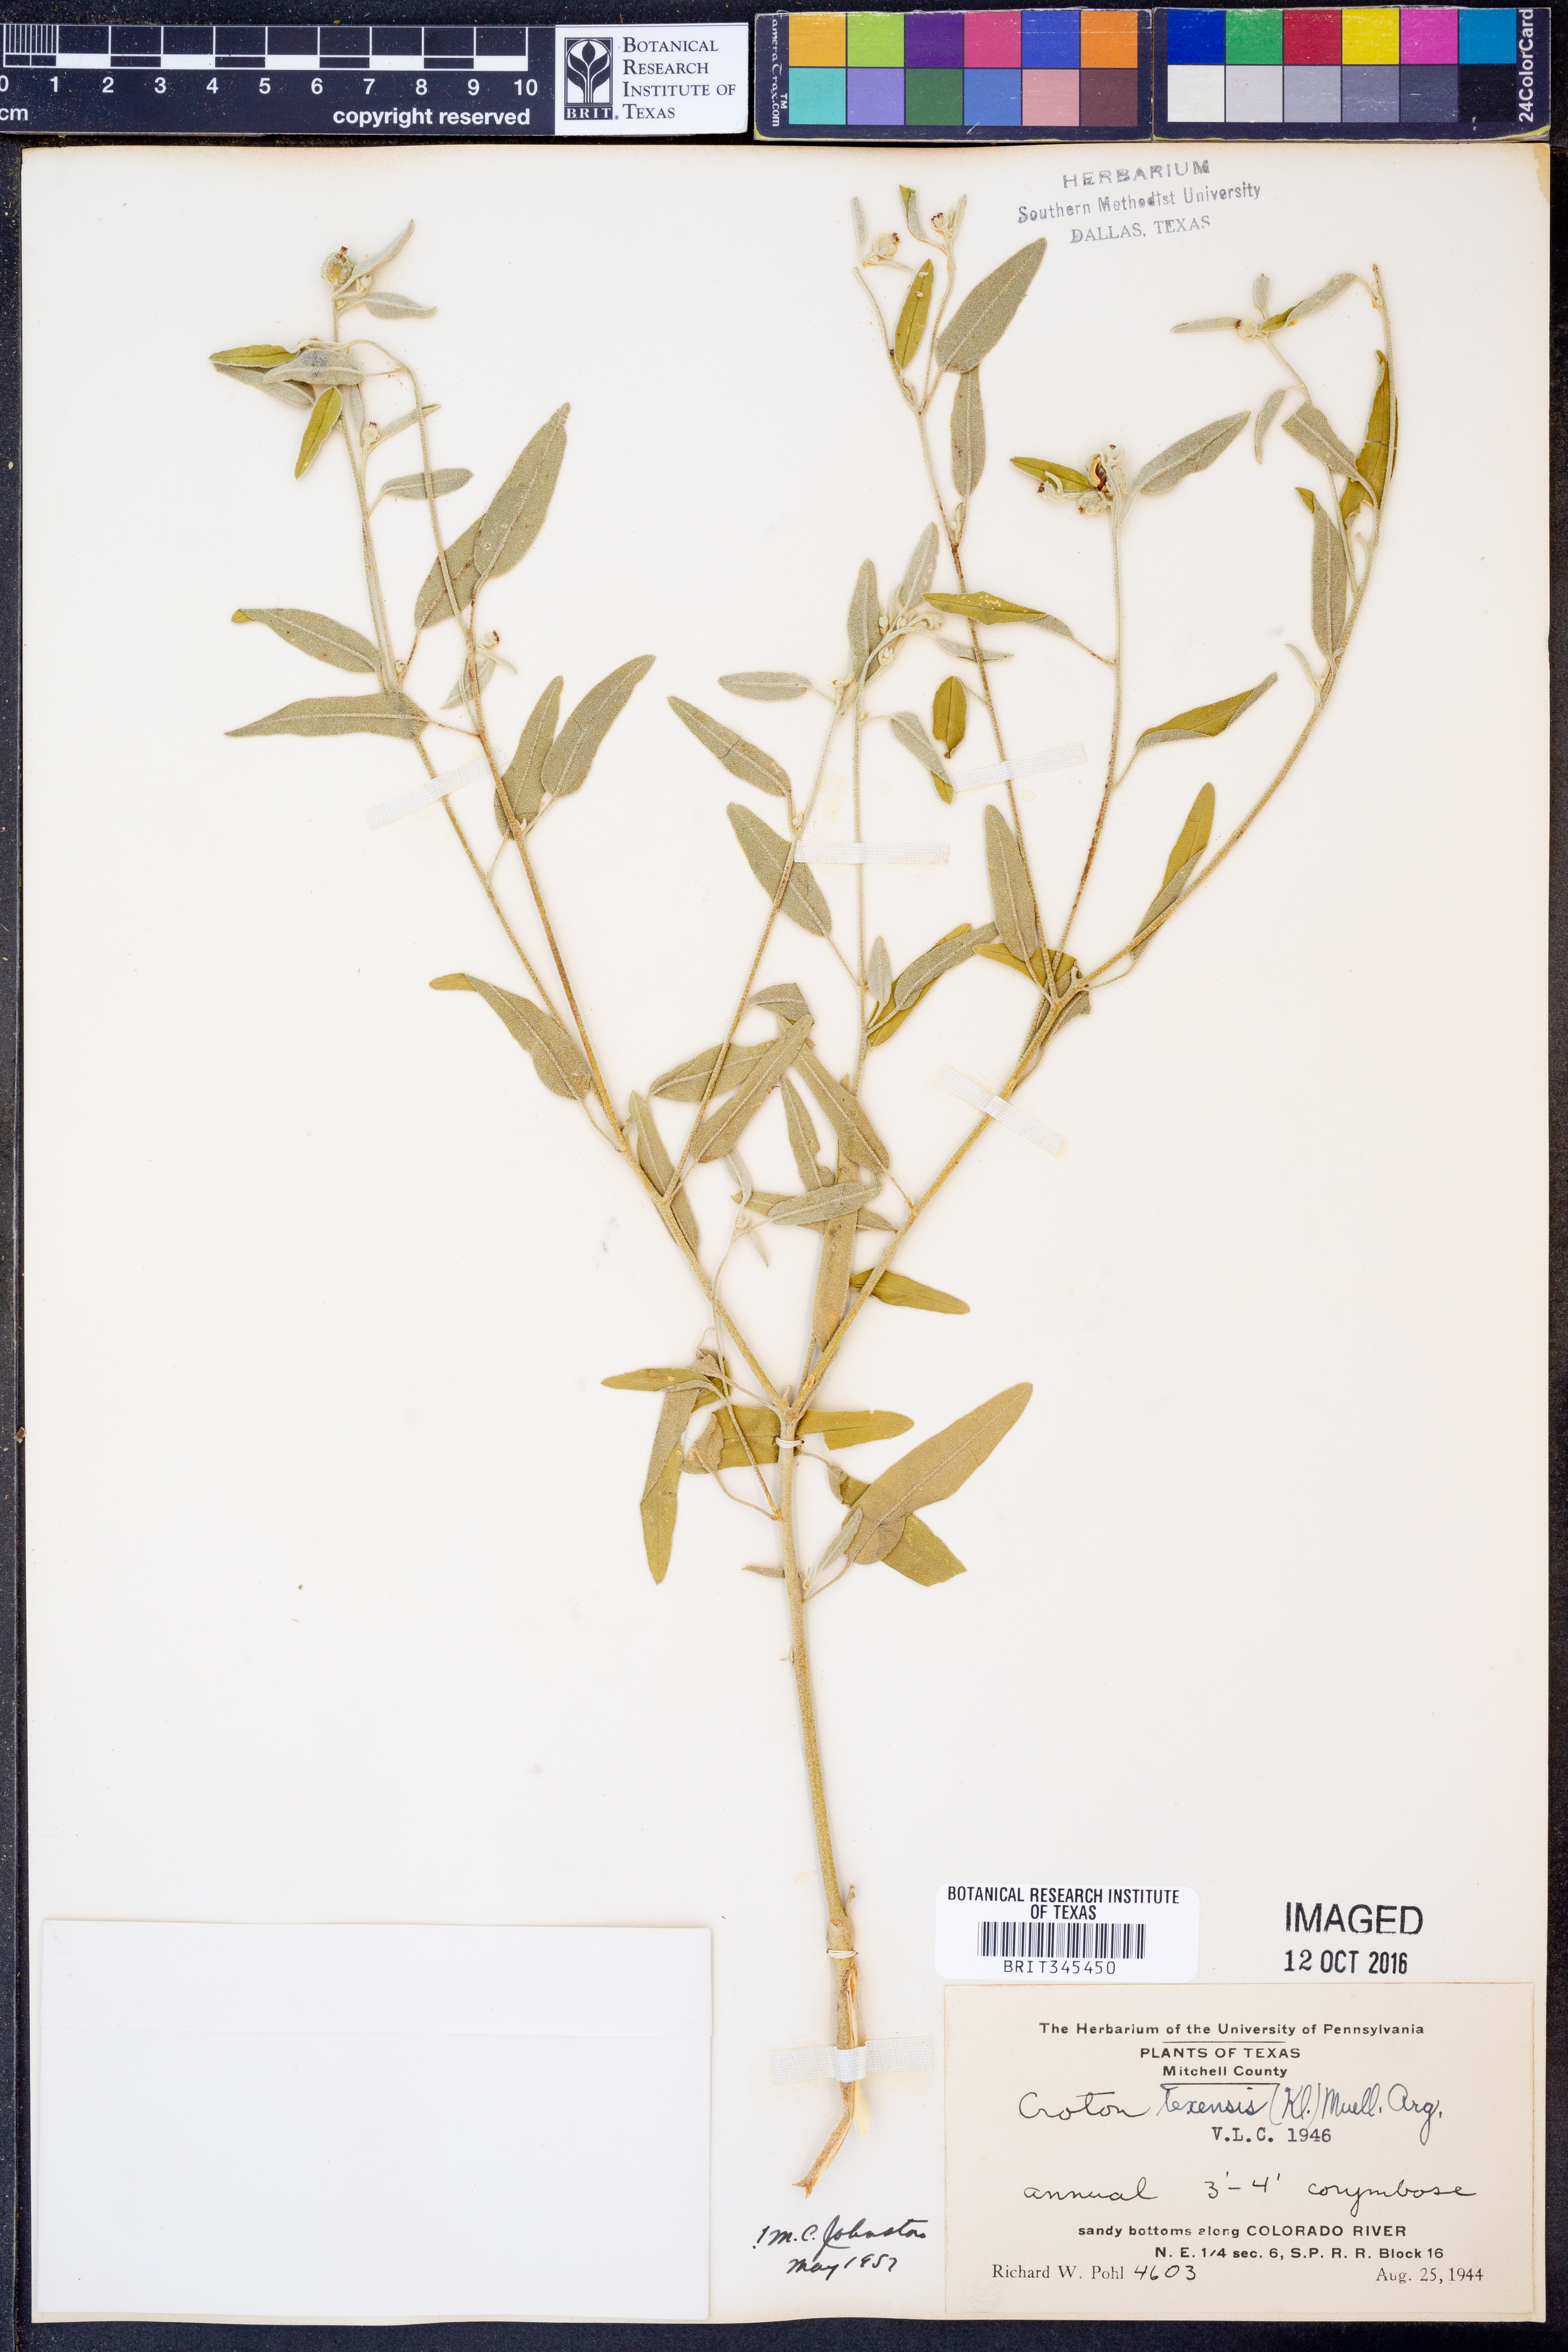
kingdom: Plantae
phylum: Tracheophyta
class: Magnoliopsida
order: Malpighiales
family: Euphorbiaceae
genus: Croton
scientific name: Croton texensis
